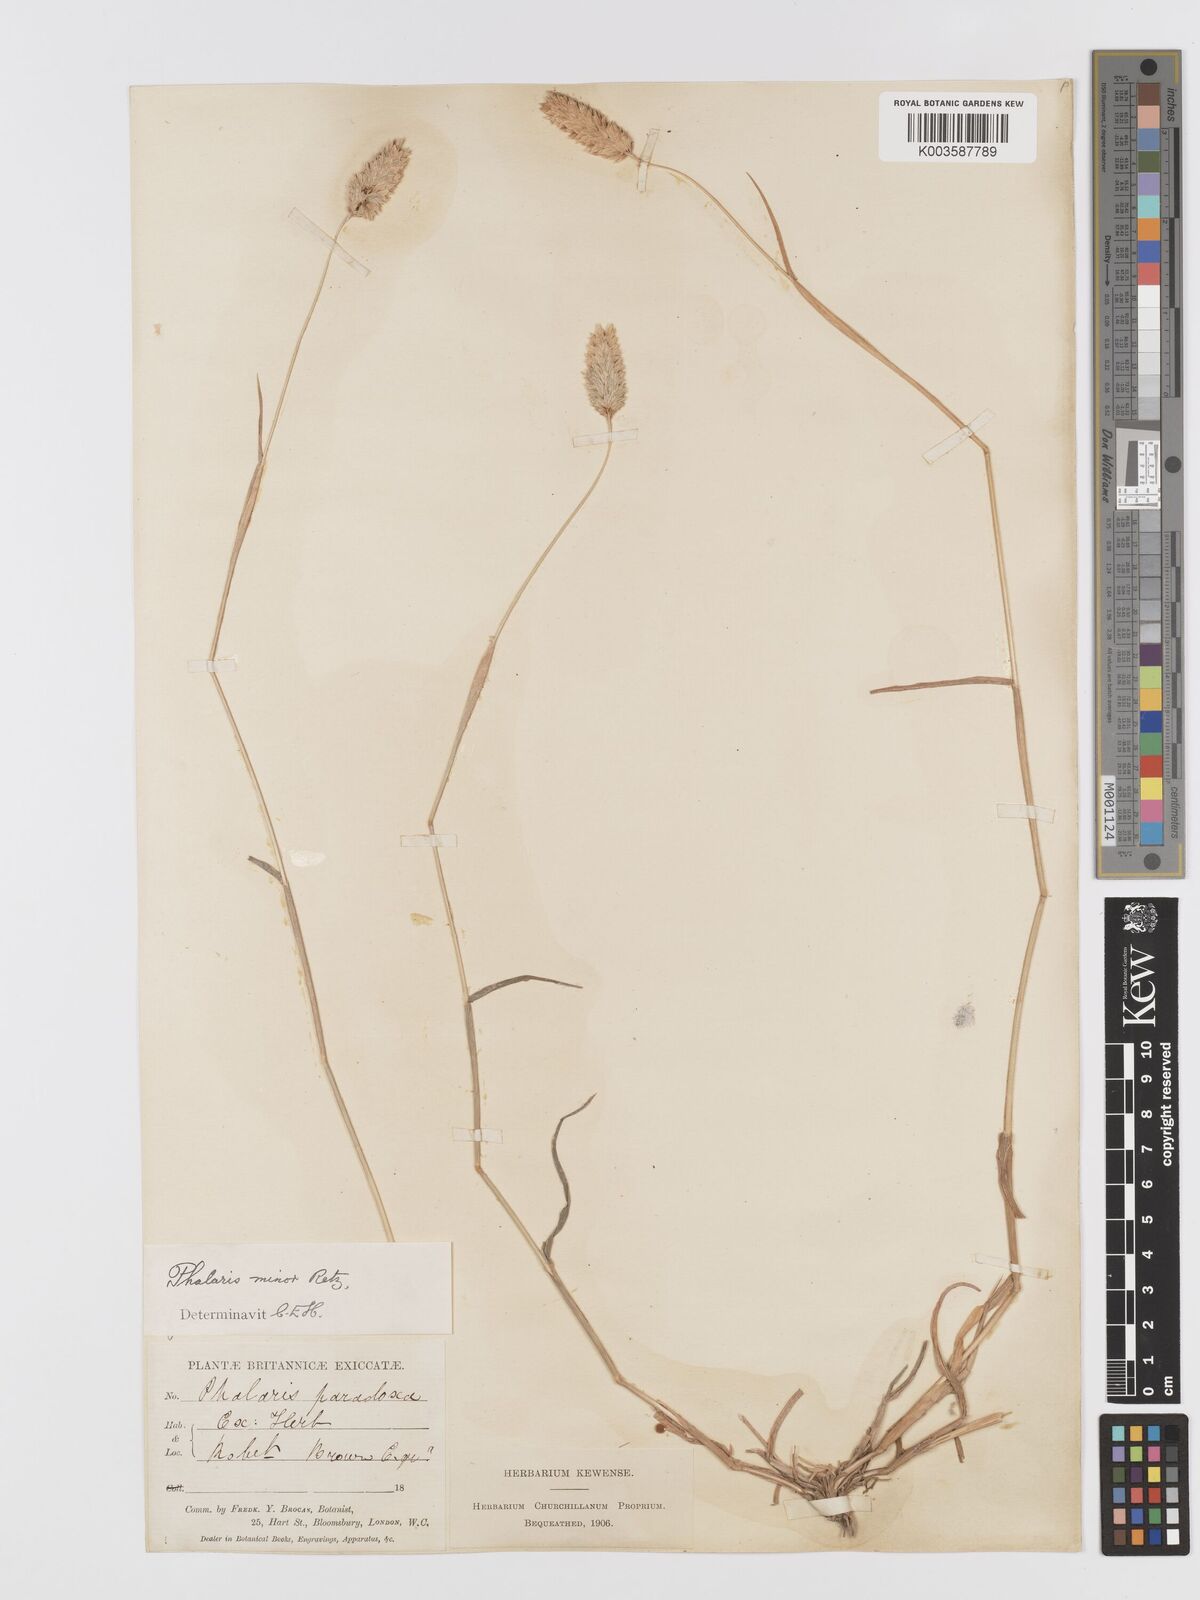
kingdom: Plantae
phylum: Tracheophyta
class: Liliopsida
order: Poales
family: Poaceae
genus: Phalaris
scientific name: Phalaris minor
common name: Littleseed canarygrass
